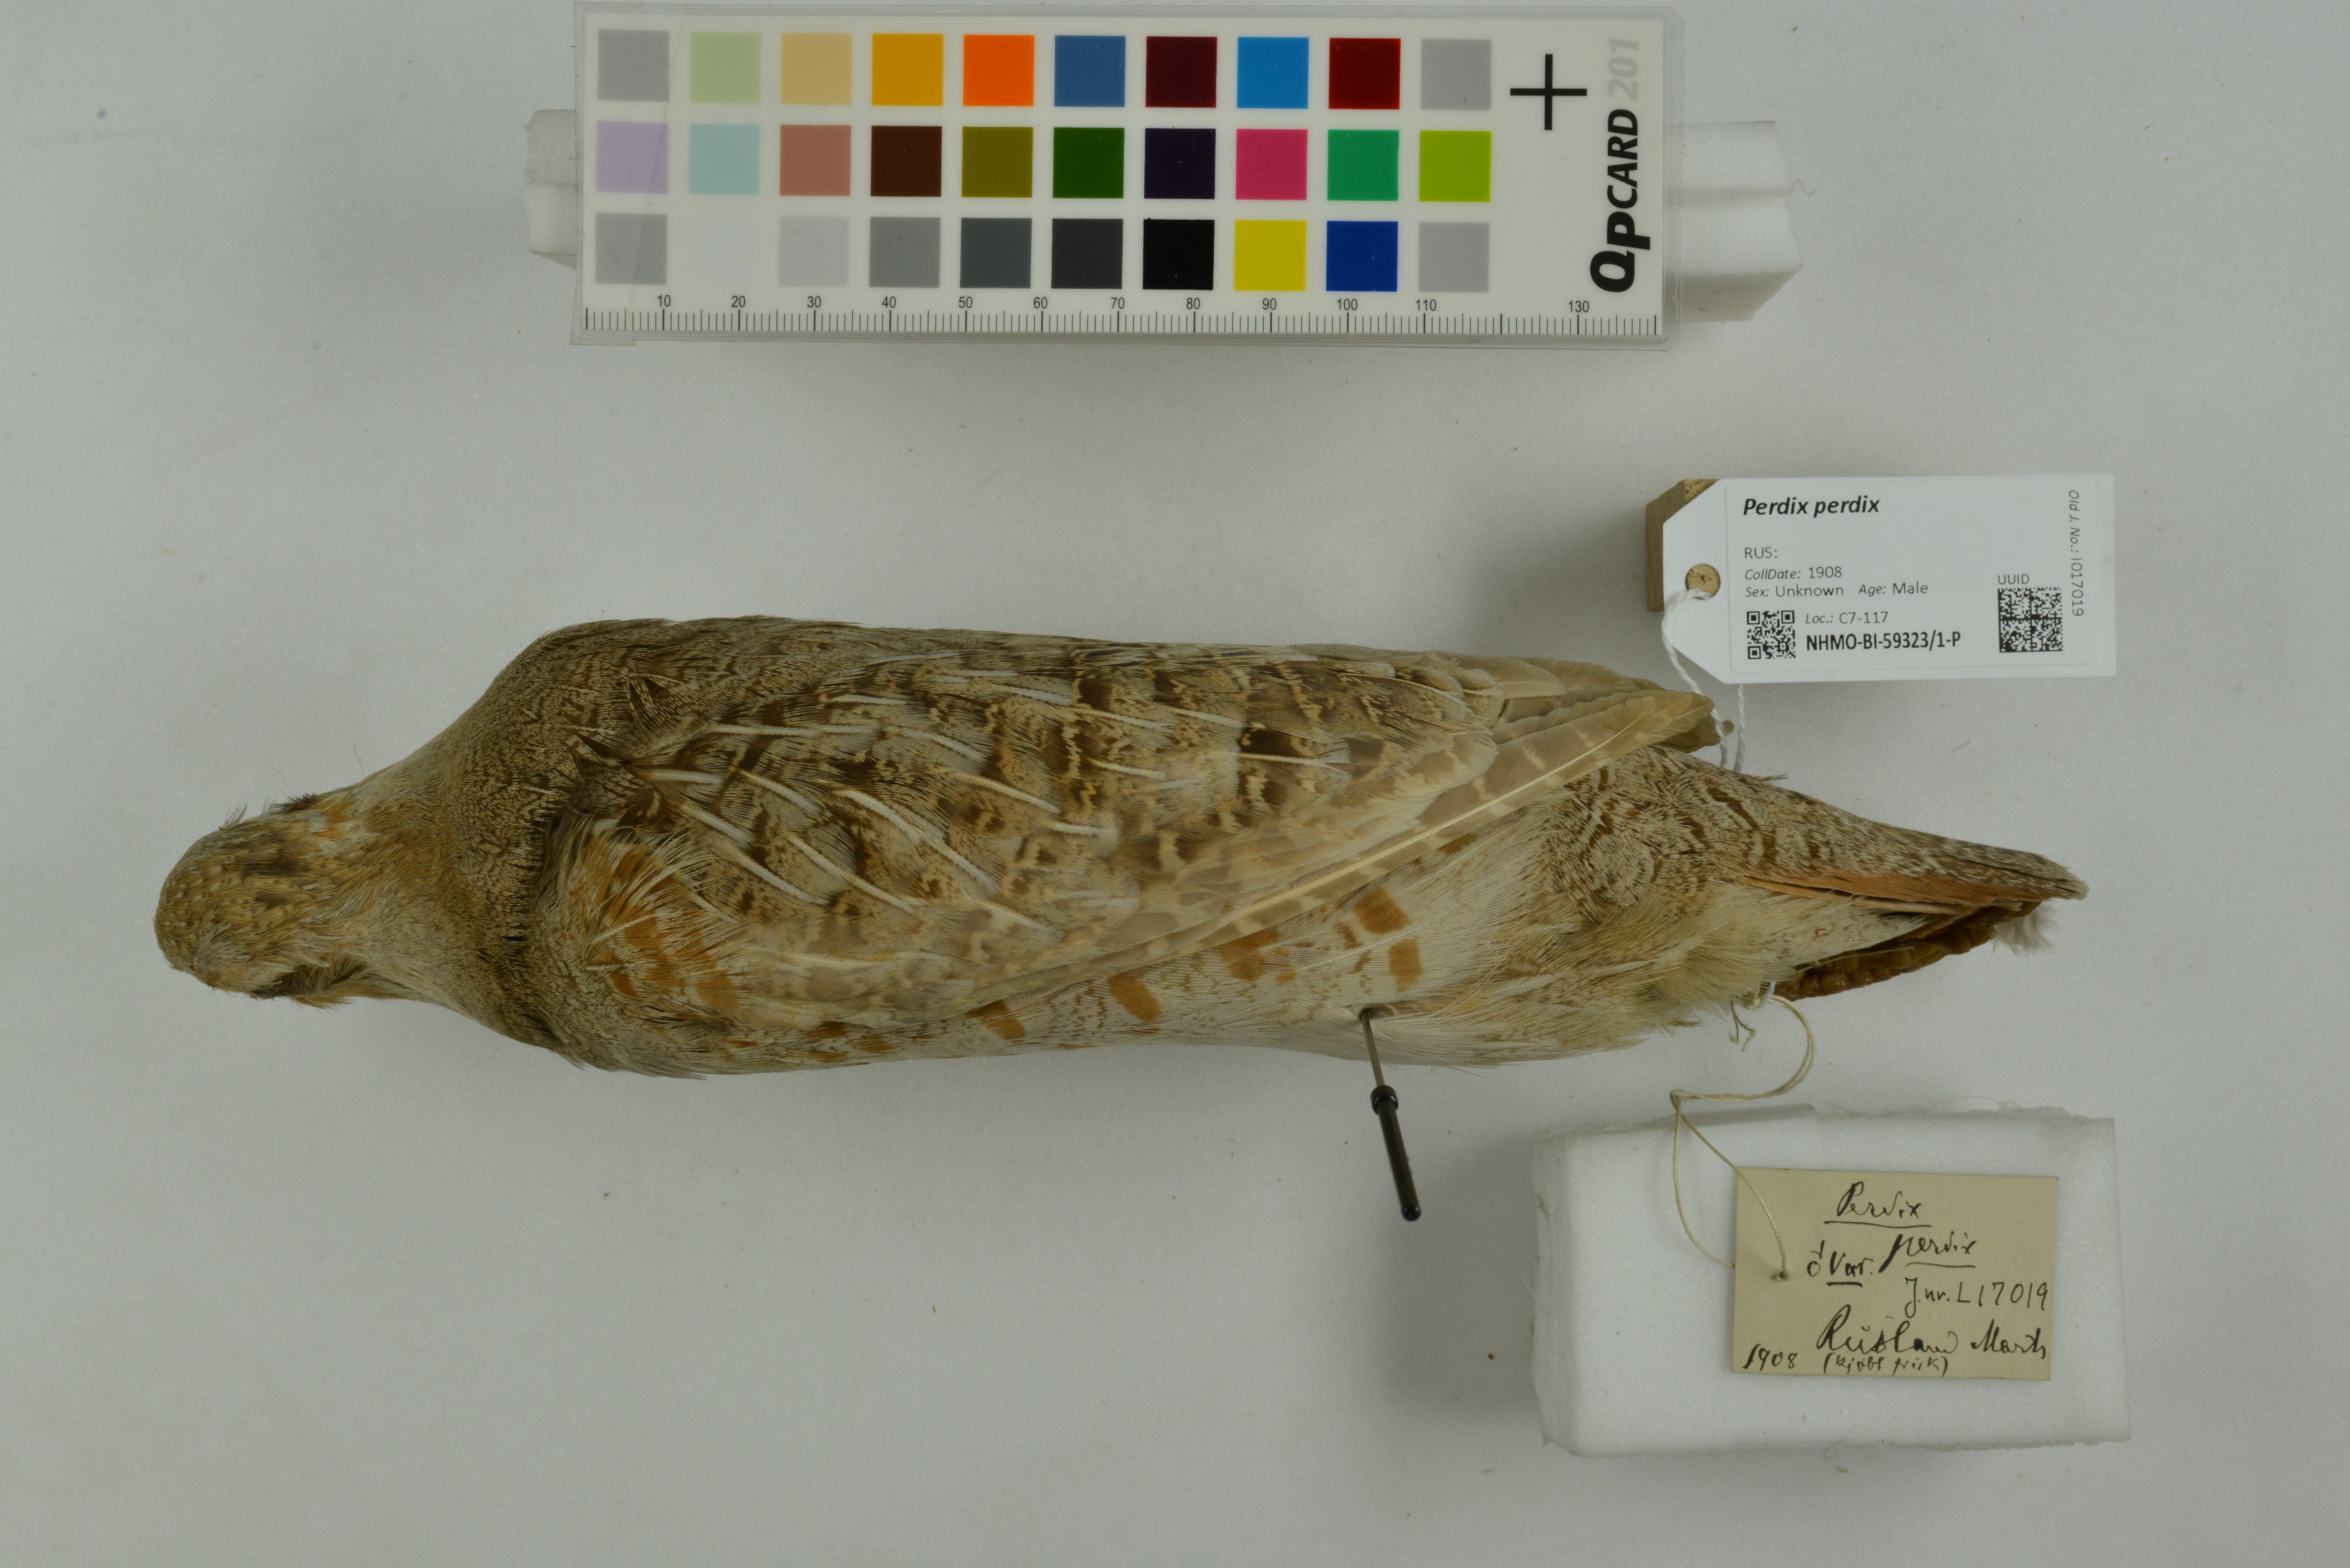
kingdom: Animalia
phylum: Chordata
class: Aves
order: Galliformes
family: Phasianidae
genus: Perdix
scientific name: Perdix perdix
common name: Grey partridge
